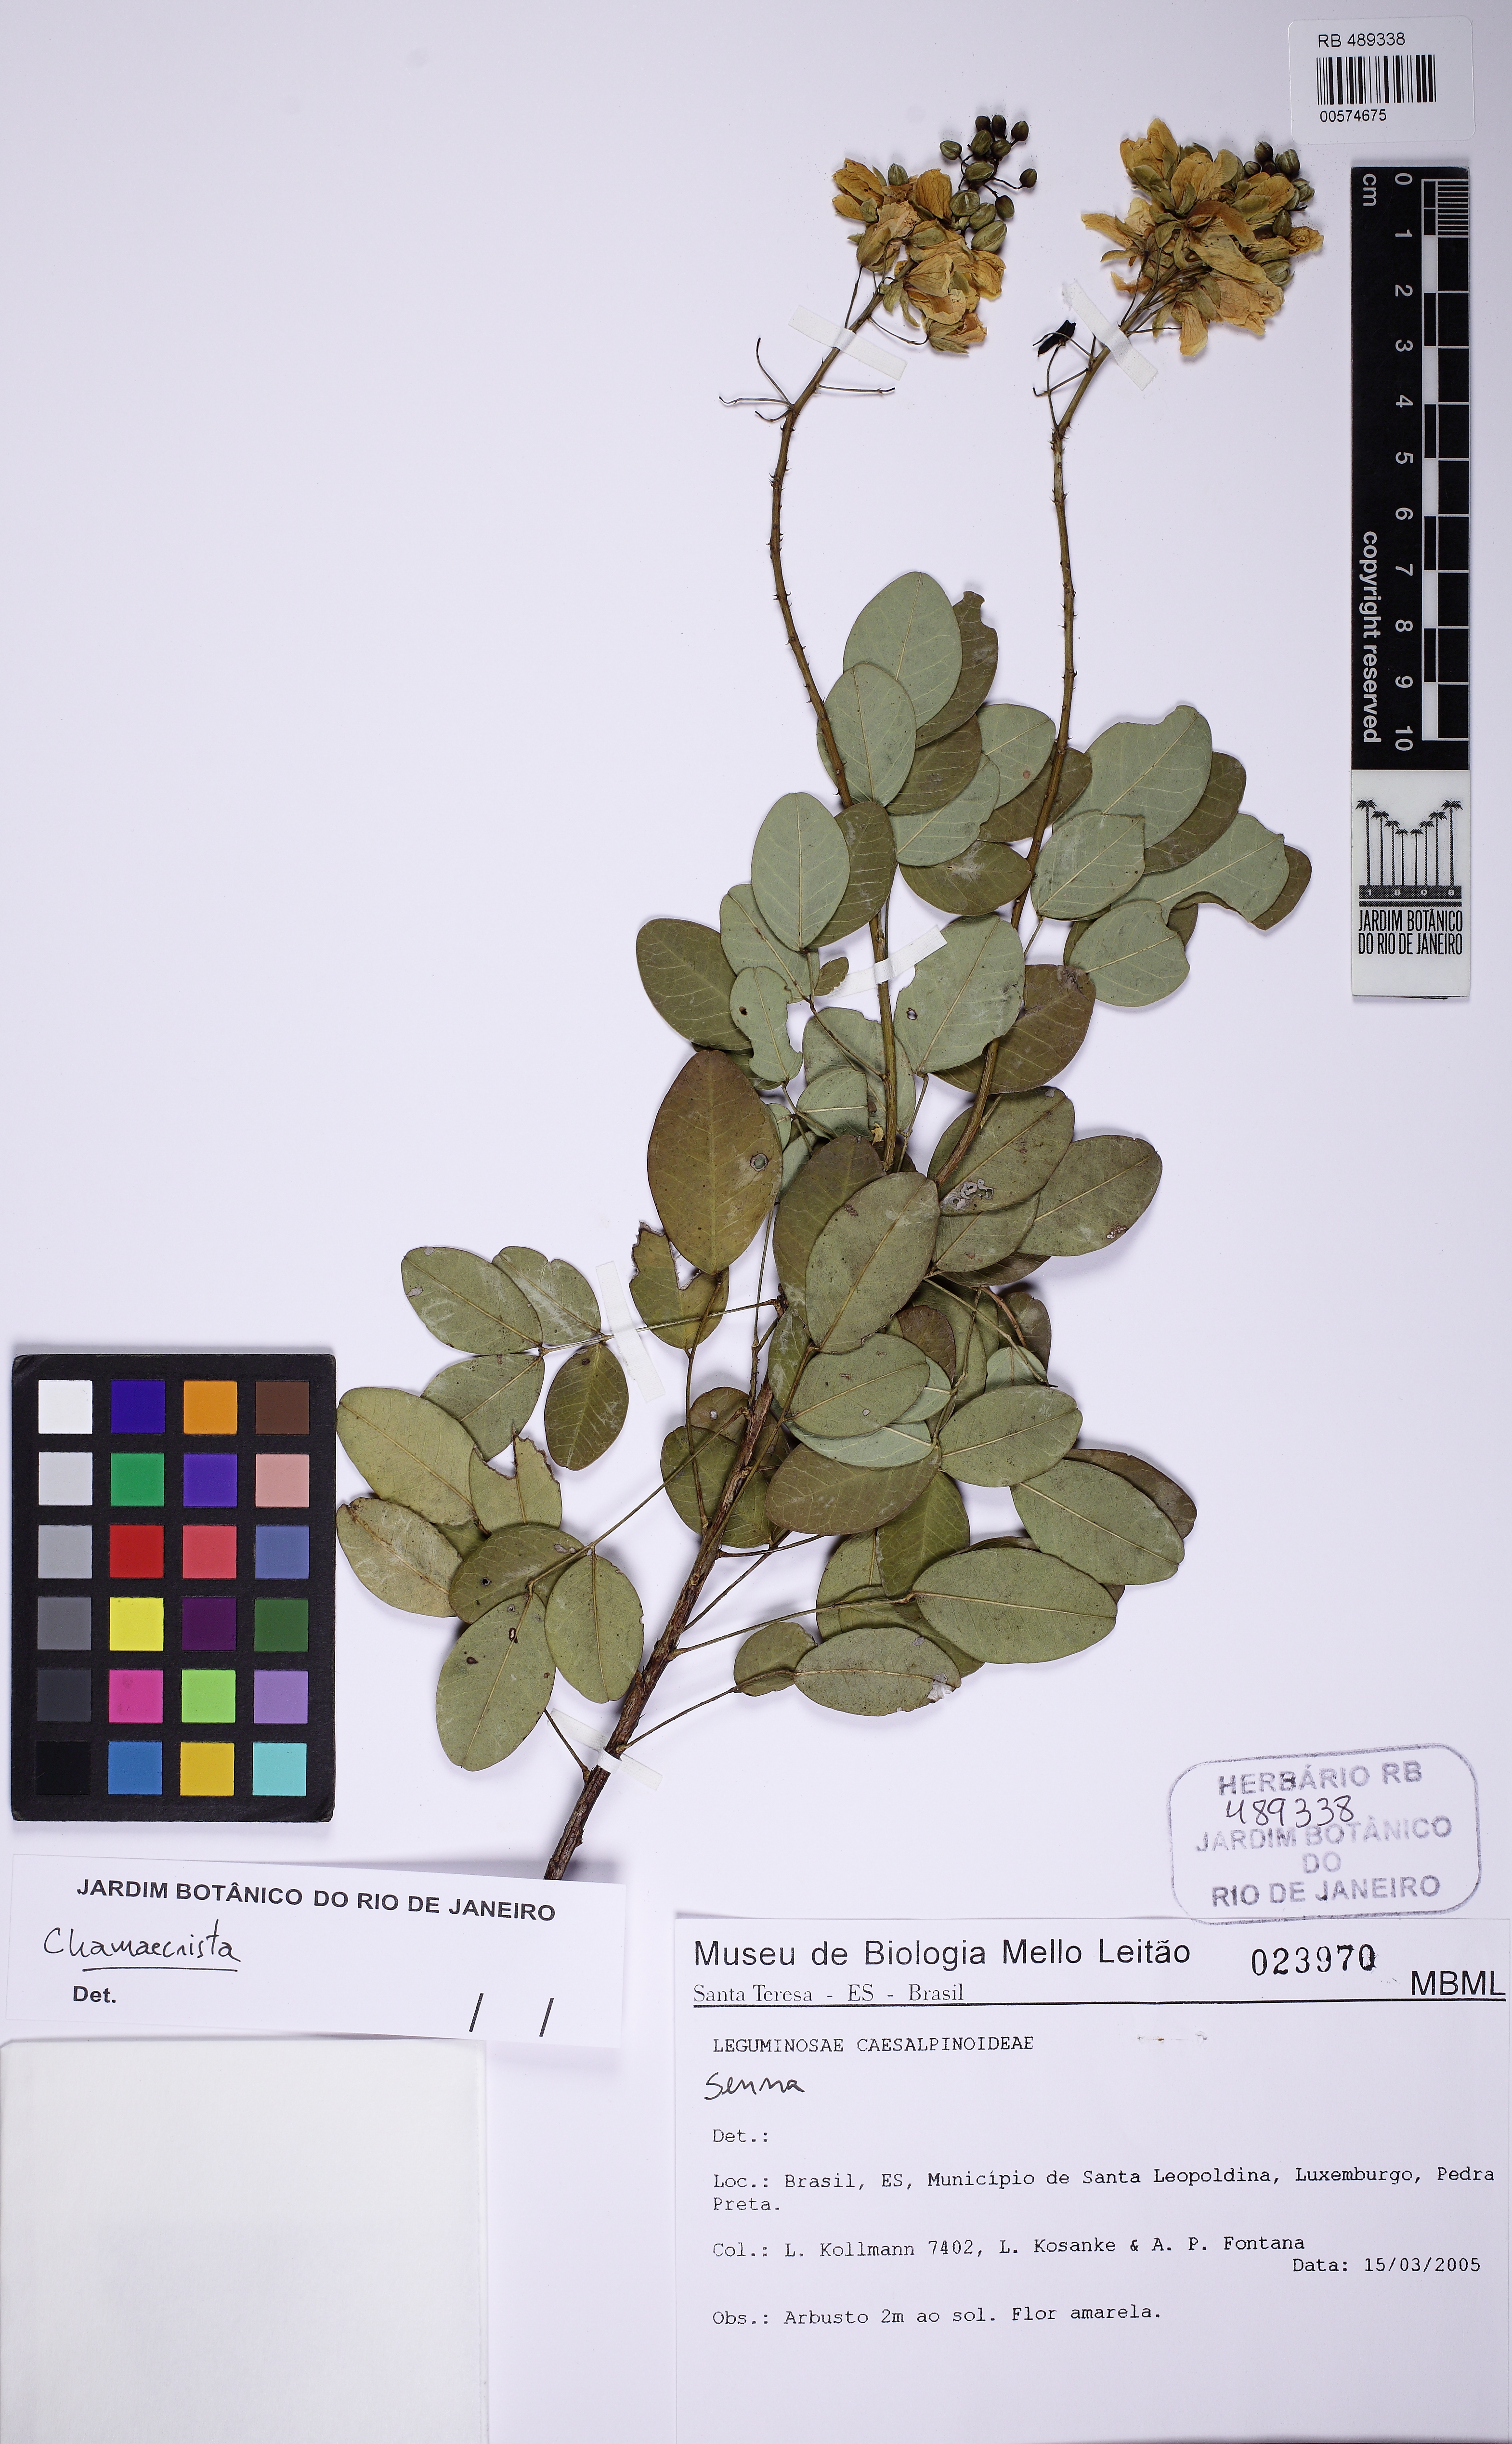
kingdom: Plantae
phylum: Tracheophyta
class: Magnoliopsida
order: Fabales
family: Fabaceae
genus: Chamaecrista
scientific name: Chamaecrista
